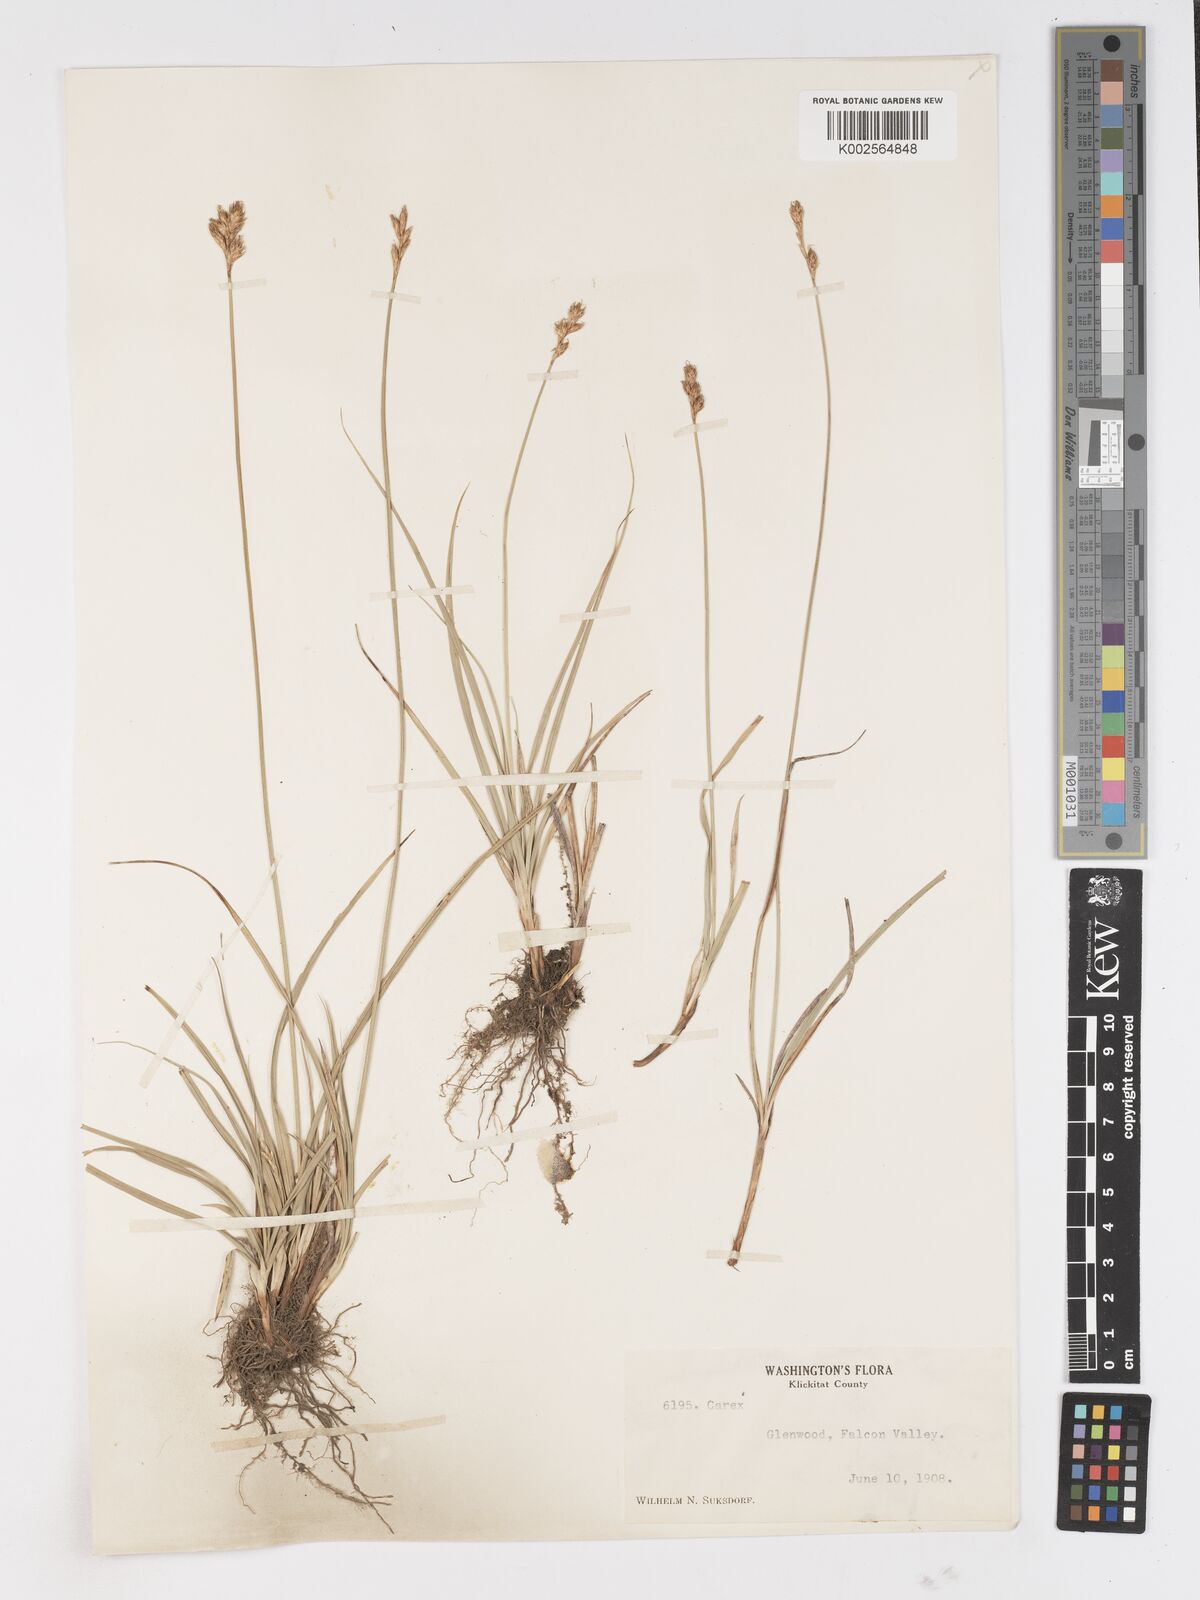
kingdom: Plantae
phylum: Tracheophyta
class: Liliopsida
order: Poales
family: Cyperaceae
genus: Carex
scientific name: Carex
